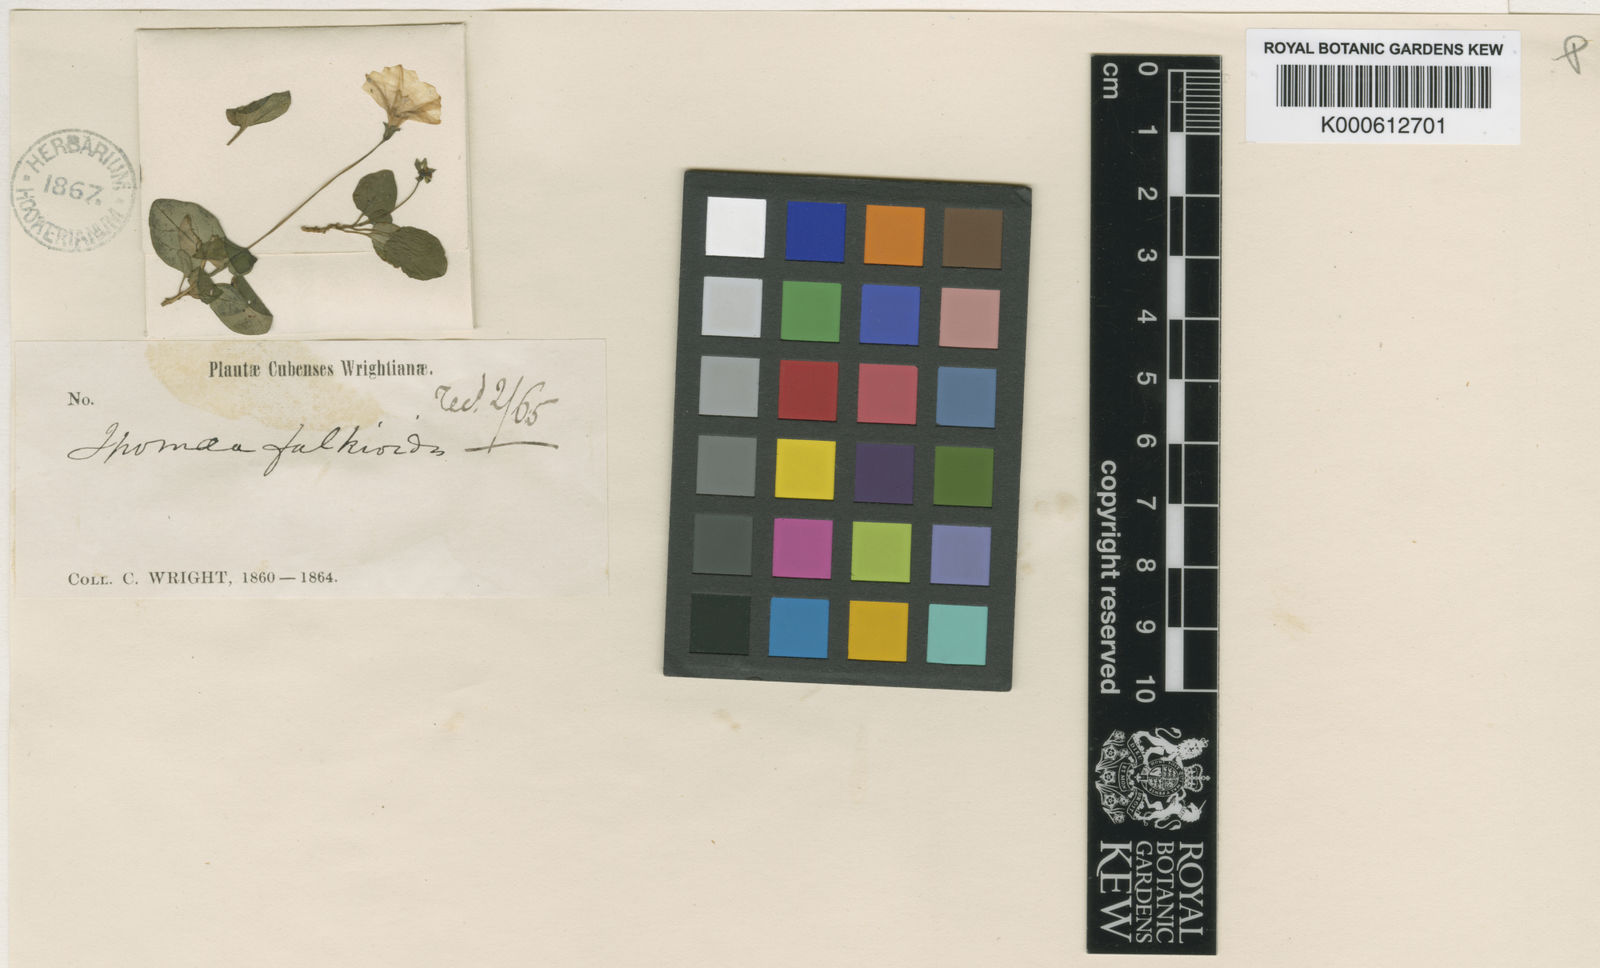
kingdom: Plantae
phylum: Tracheophyta
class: Magnoliopsida
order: Solanales
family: Convolvulaceae
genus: Ipomoea
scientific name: Ipomoea falkioides
